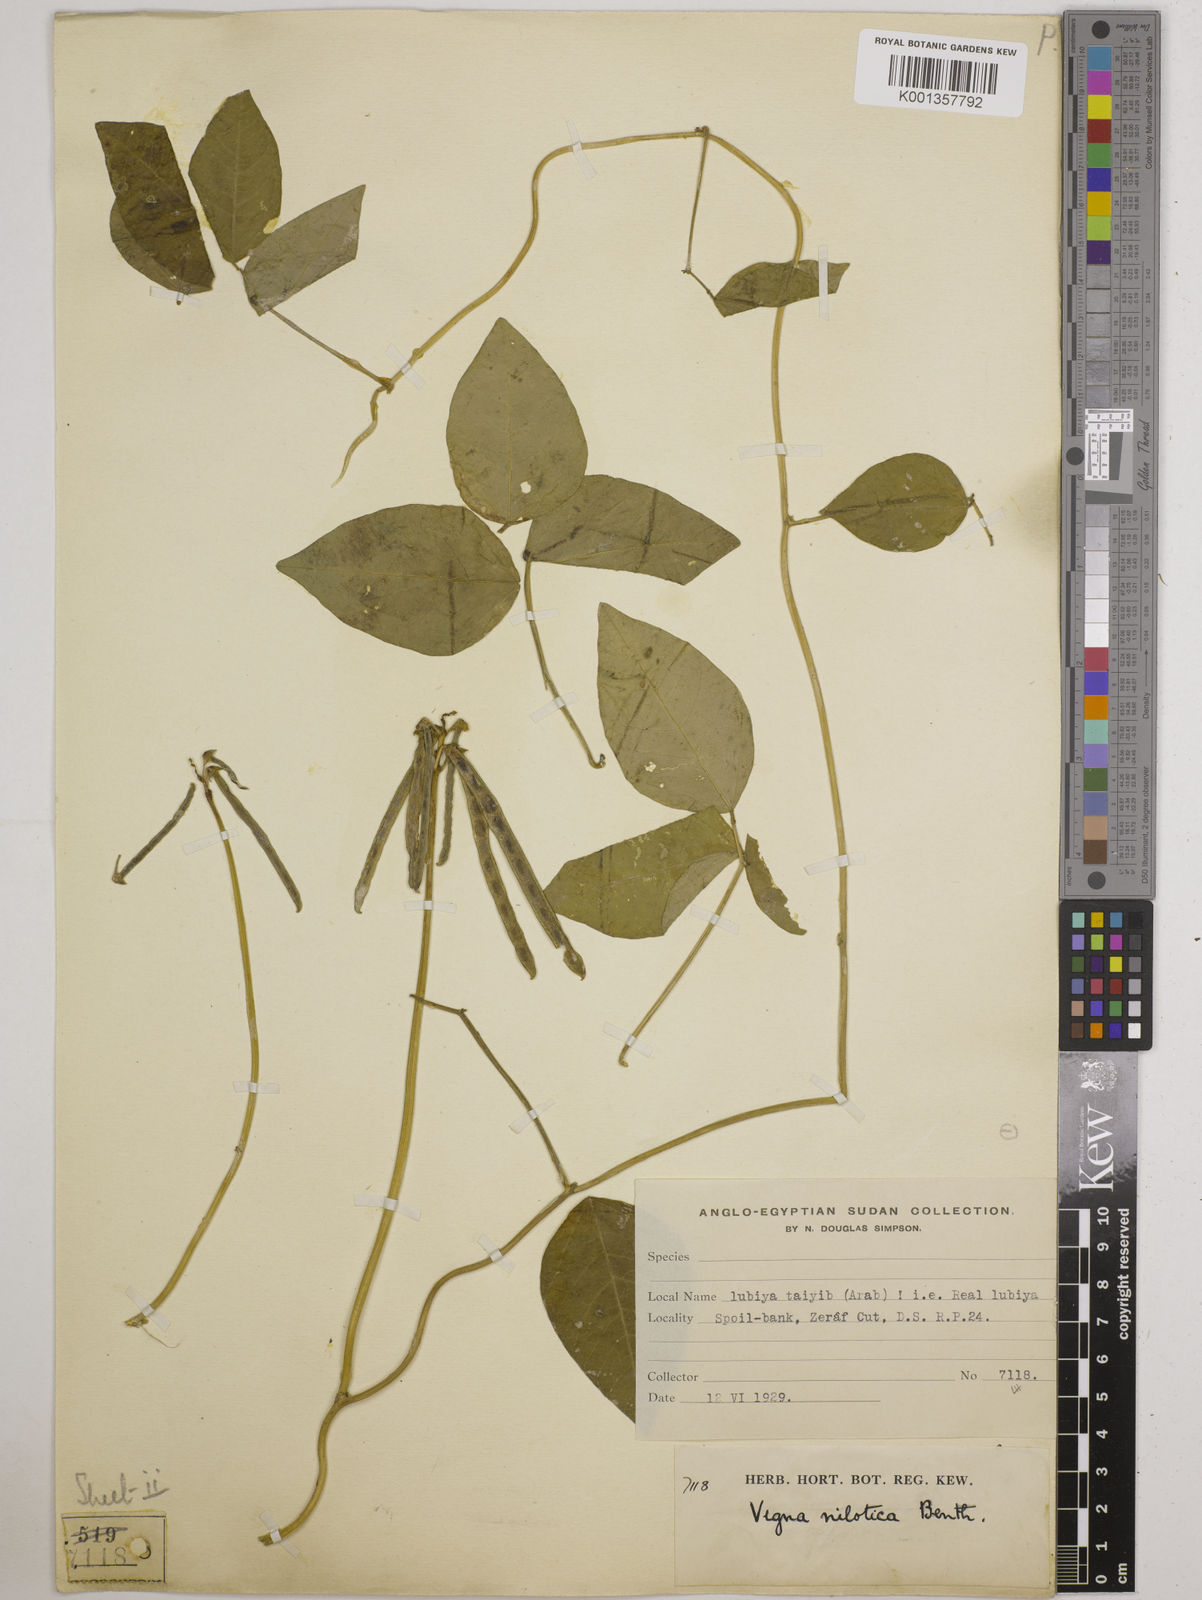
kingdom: Plantae
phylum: Tracheophyta
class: Magnoliopsida
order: Fabales
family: Fabaceae
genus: Vigna
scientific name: Vigna luteola
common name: Hairypod cowpea
